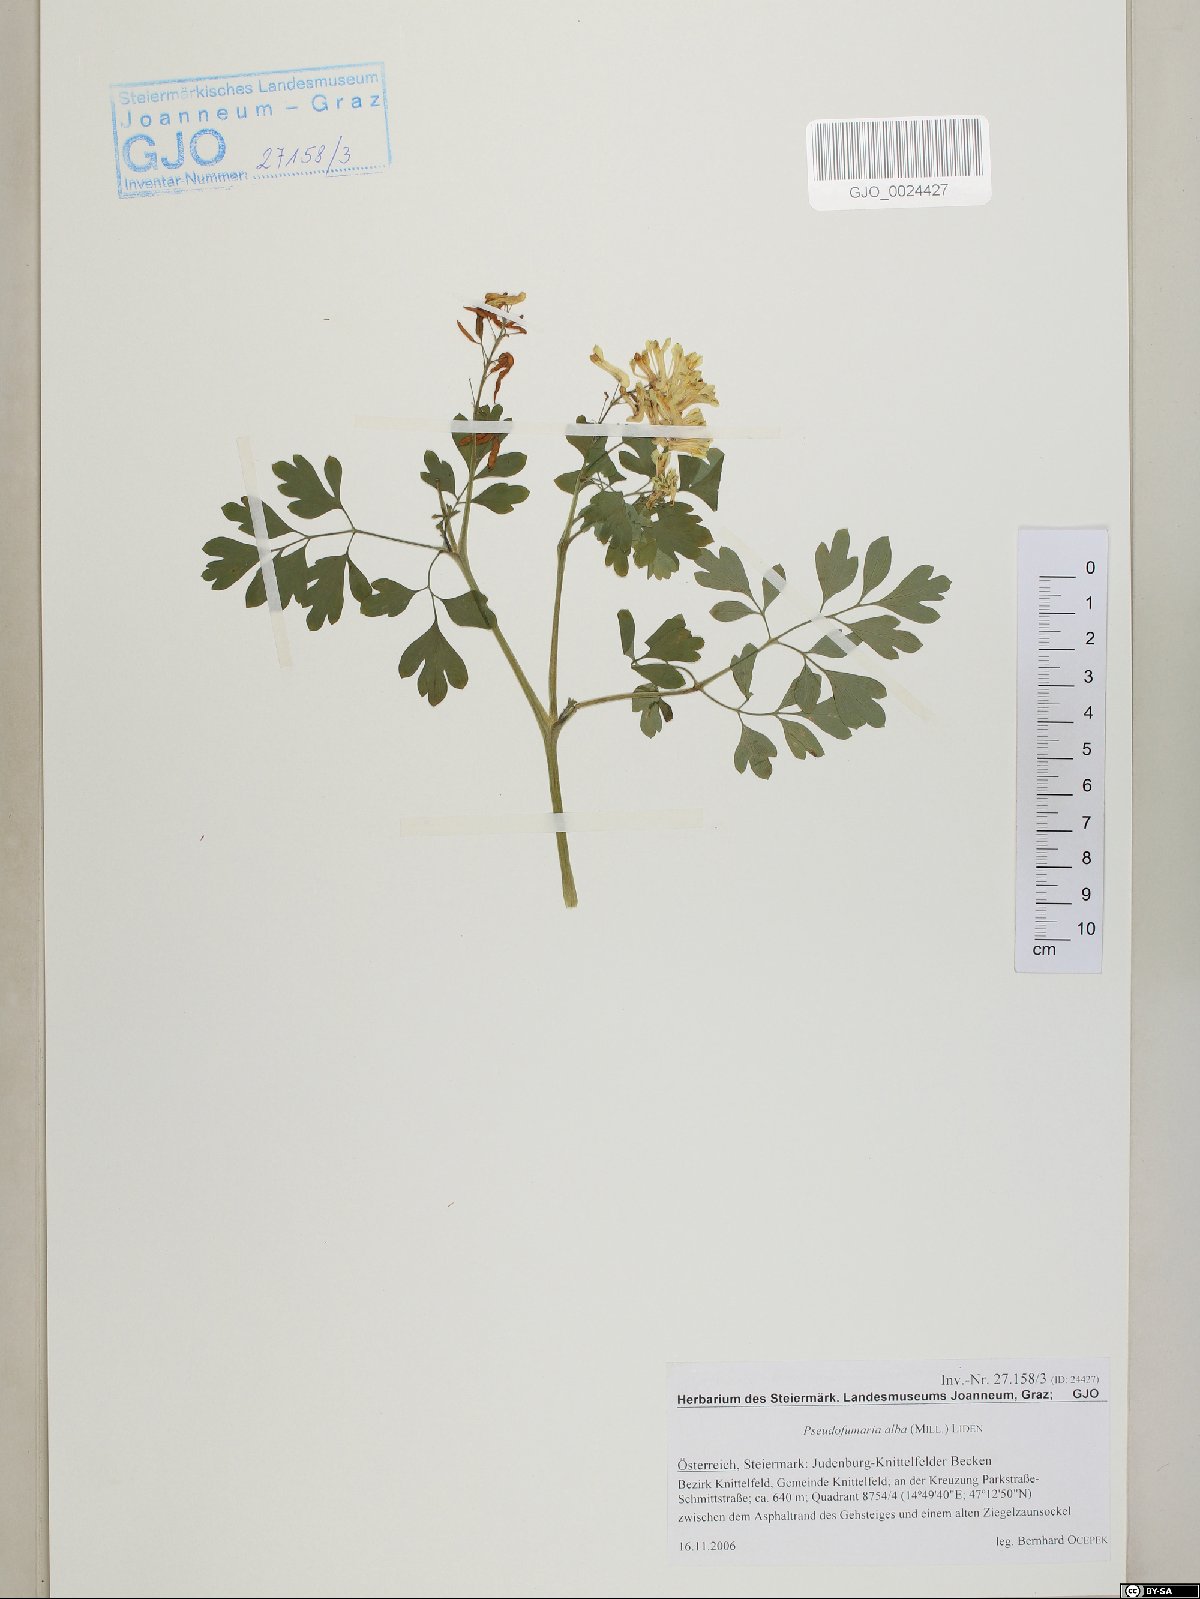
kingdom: Plantae
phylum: Tracheophyta
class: Magnoliopsida
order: Ranunculales
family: Papaveraceae
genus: Pseudofumaria
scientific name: Pseudofumaria alba
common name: Pale corydalis
